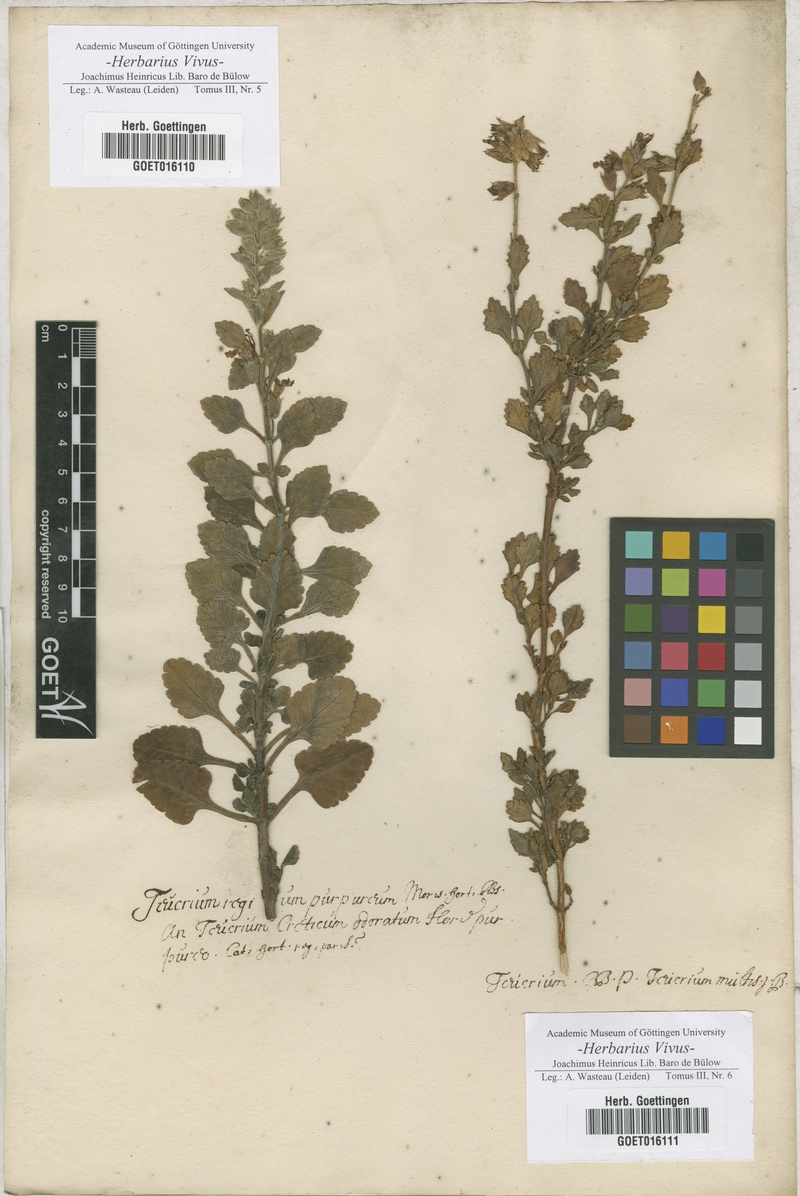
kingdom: Plantae
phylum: Tracheophyta
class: Magnoliopsida
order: Lamiales
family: Lamiaceae
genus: Teucrium
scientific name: Teucrium
